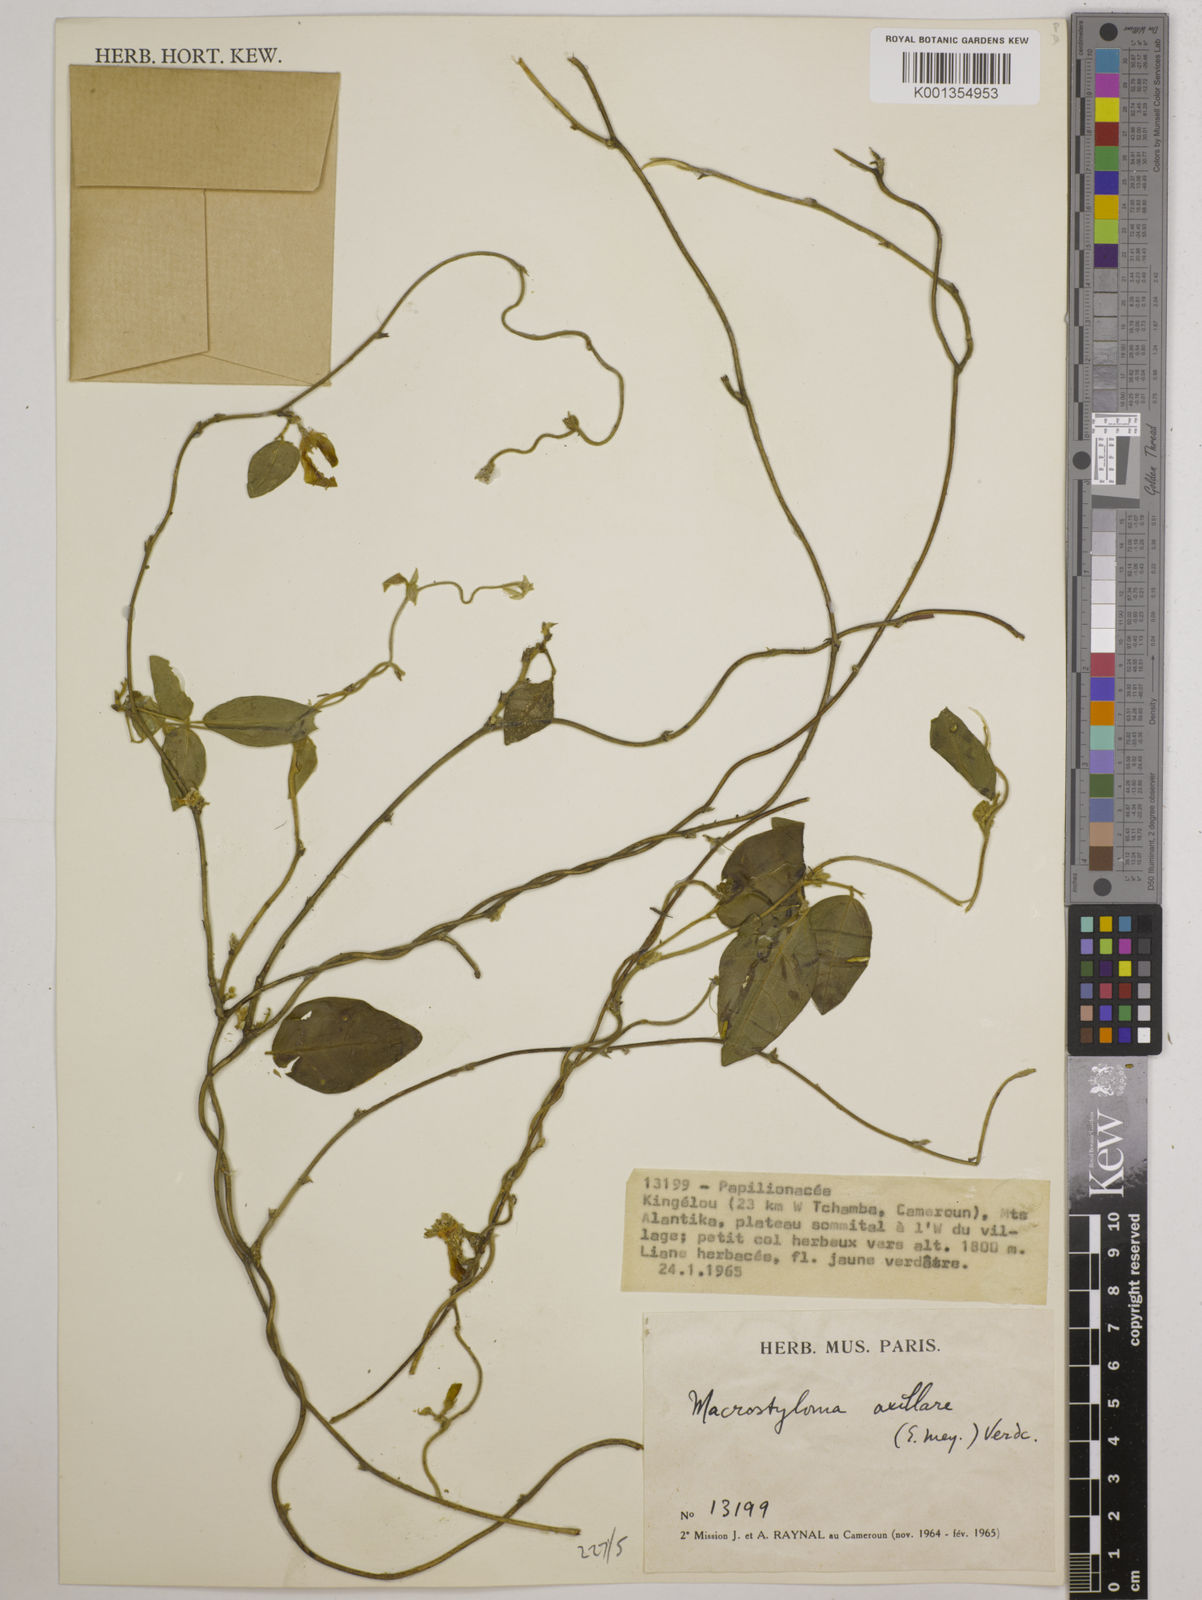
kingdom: Plantae
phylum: Tracheophyta
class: Magnoliopsida
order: Fabales
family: Fabaceae
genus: Macrotyloma
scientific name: Macrotyloma axillare
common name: Perennial horsegram
